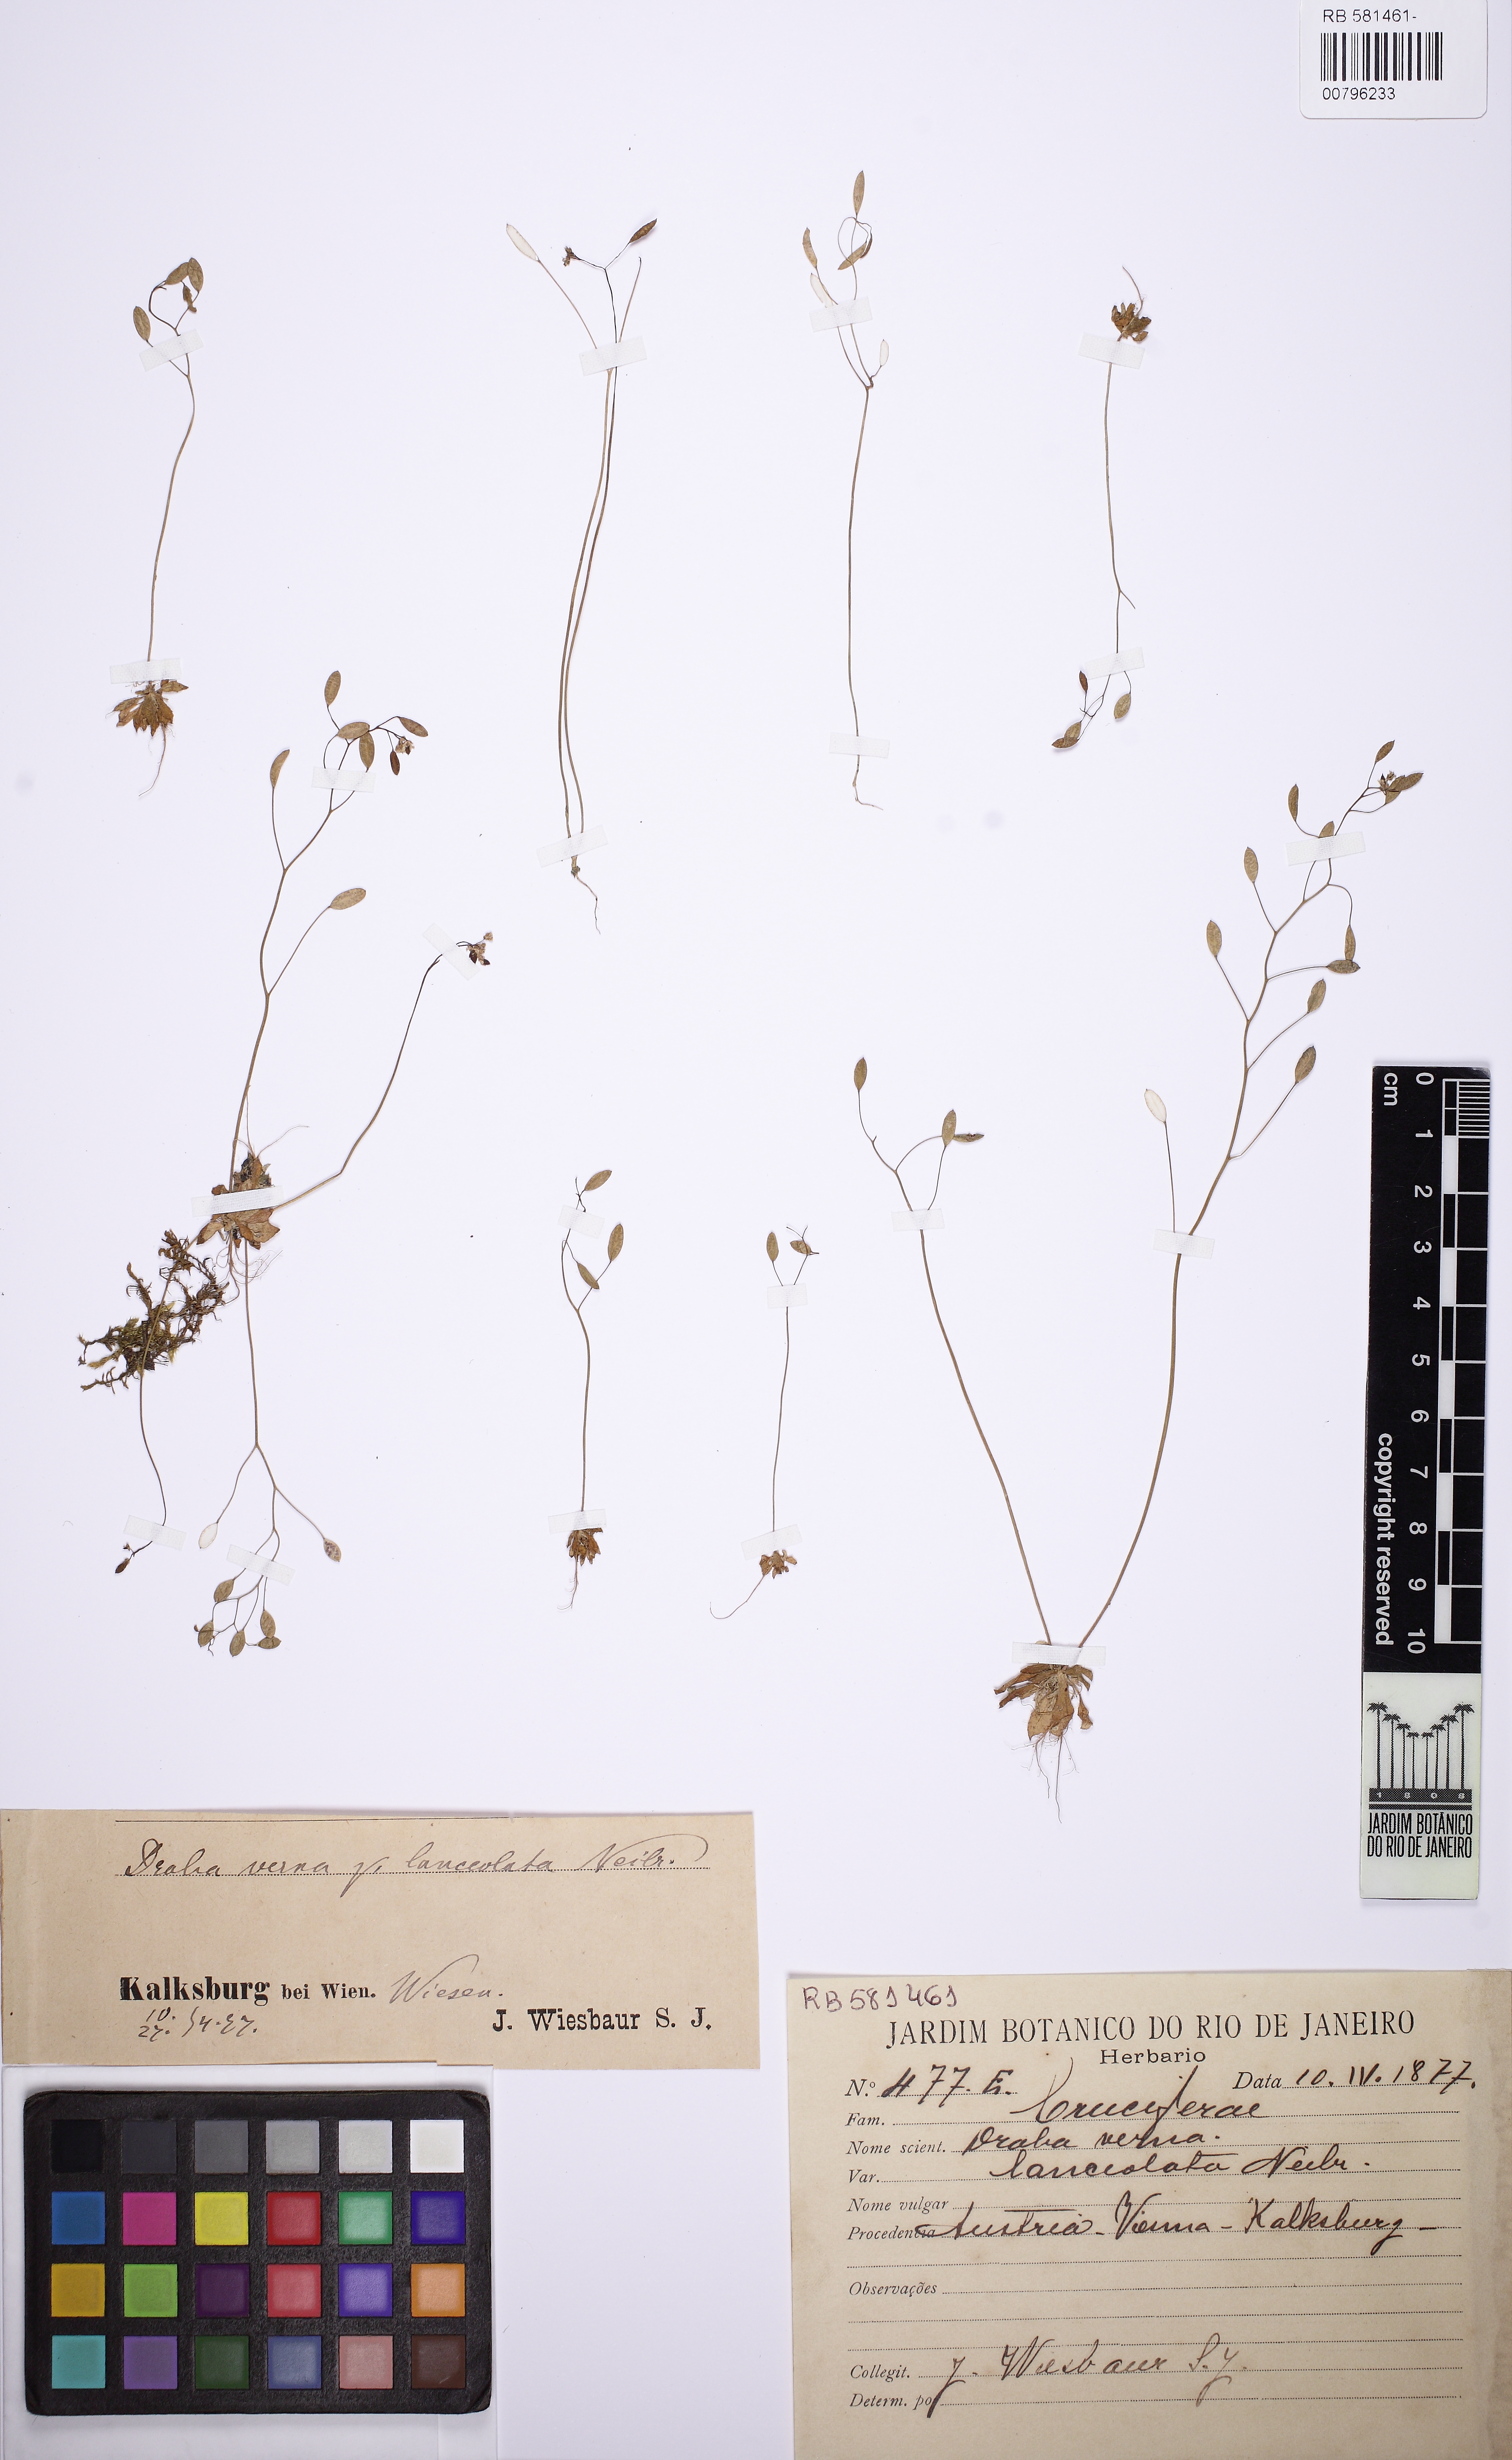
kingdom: Plantae
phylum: Tracheophyta
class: Magnoliopsida
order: Brassicales
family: Brassicaceae
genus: Draba
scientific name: Draba verna
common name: Spring draba
